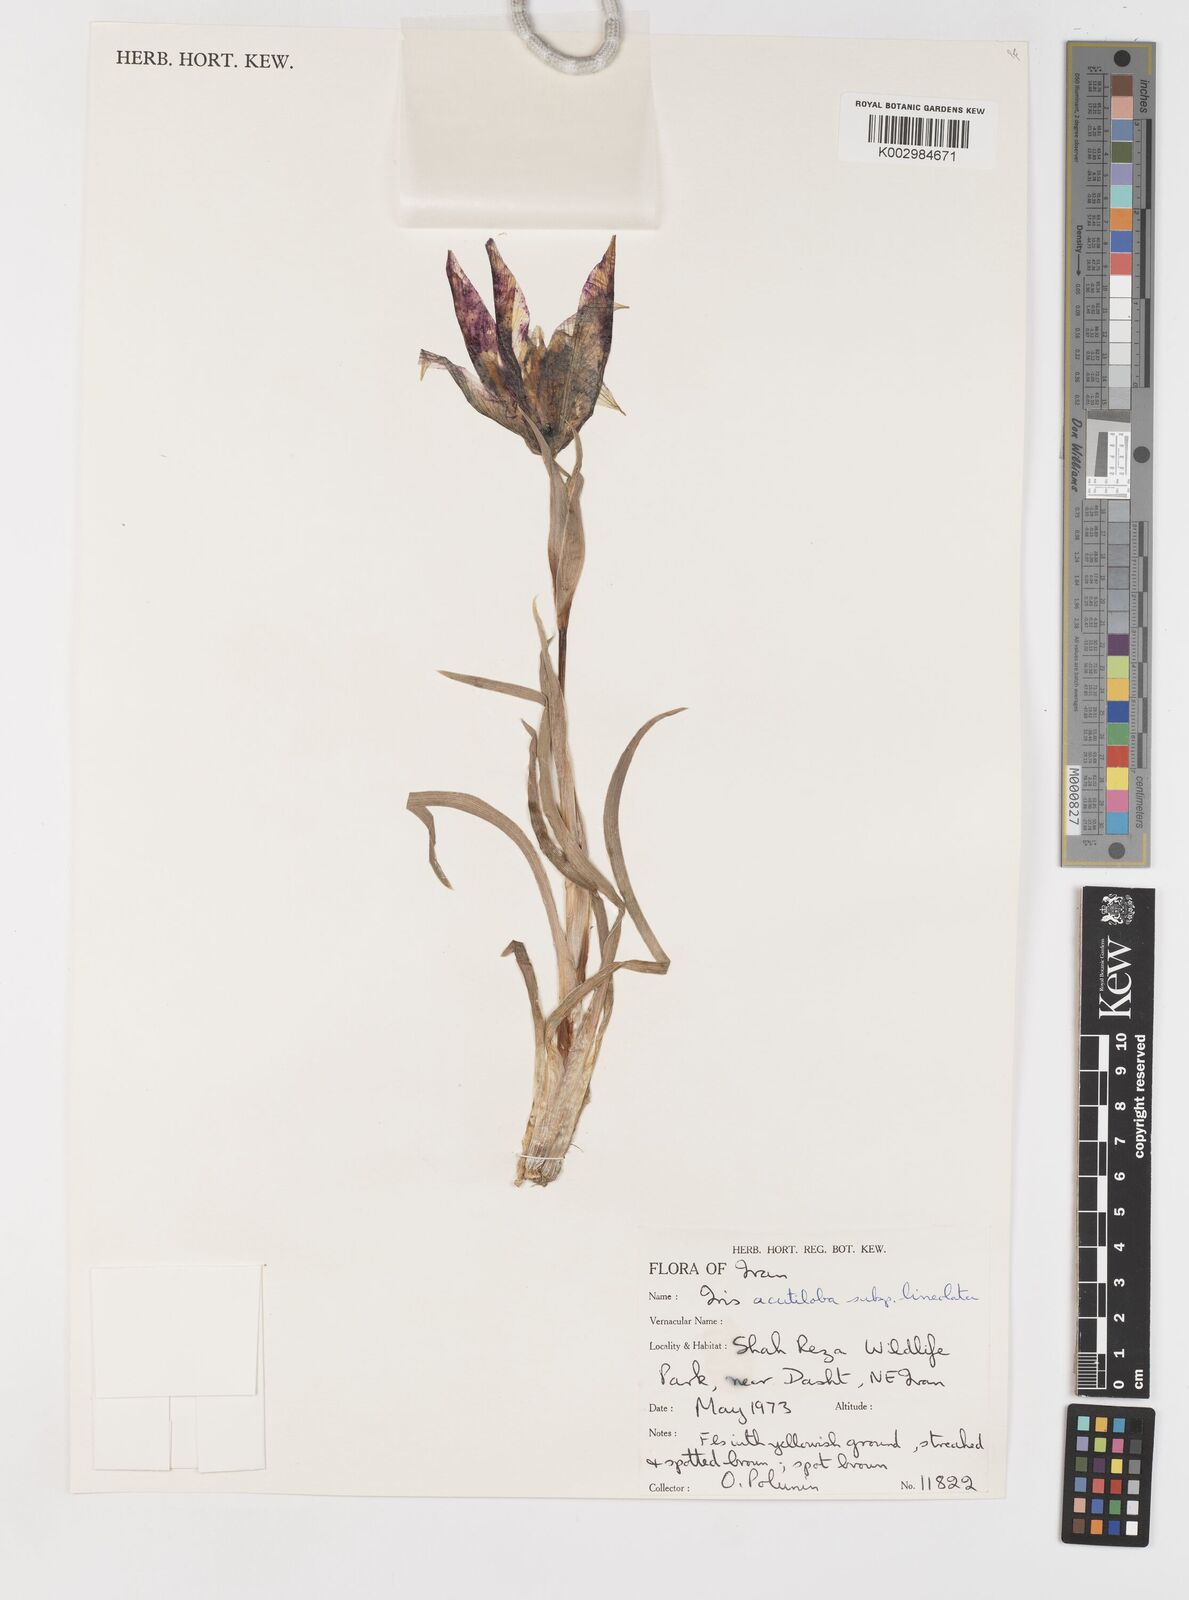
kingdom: Plantae
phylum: Tracheophyta
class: Liliopsida
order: Asparagales
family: Iridaceae
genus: Iris
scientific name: Iris acutiloba
